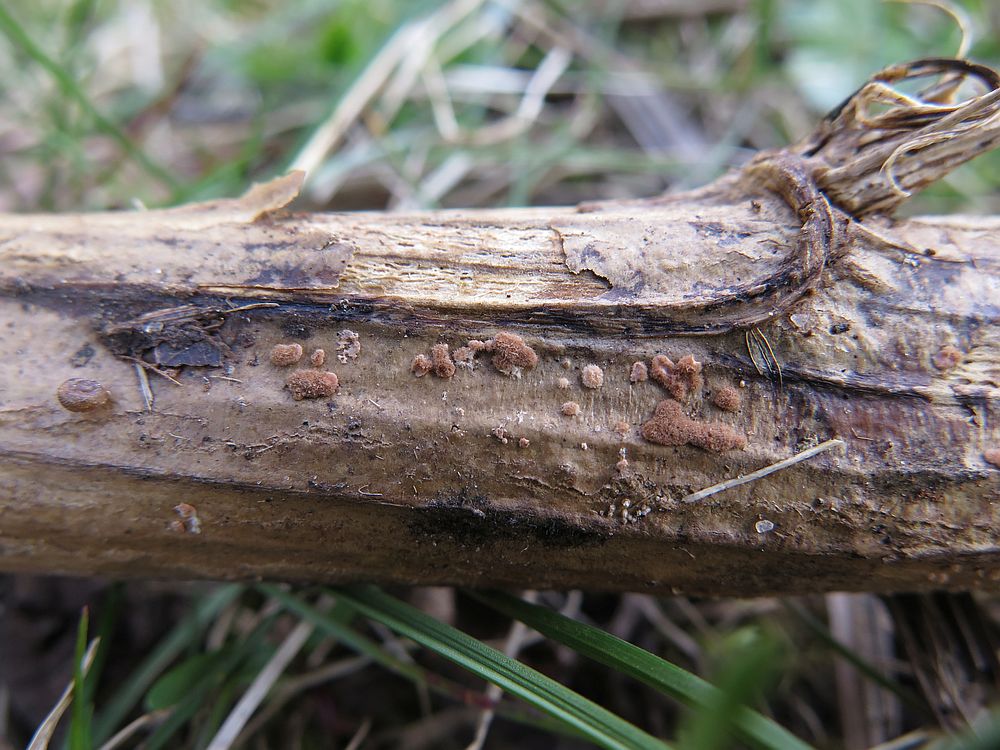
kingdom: Fungi
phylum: Ascomycota
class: Sordariomycetes
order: Hypocreales
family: Nectriaceae
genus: Sarcopodium
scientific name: Sarcopodium circinatum
